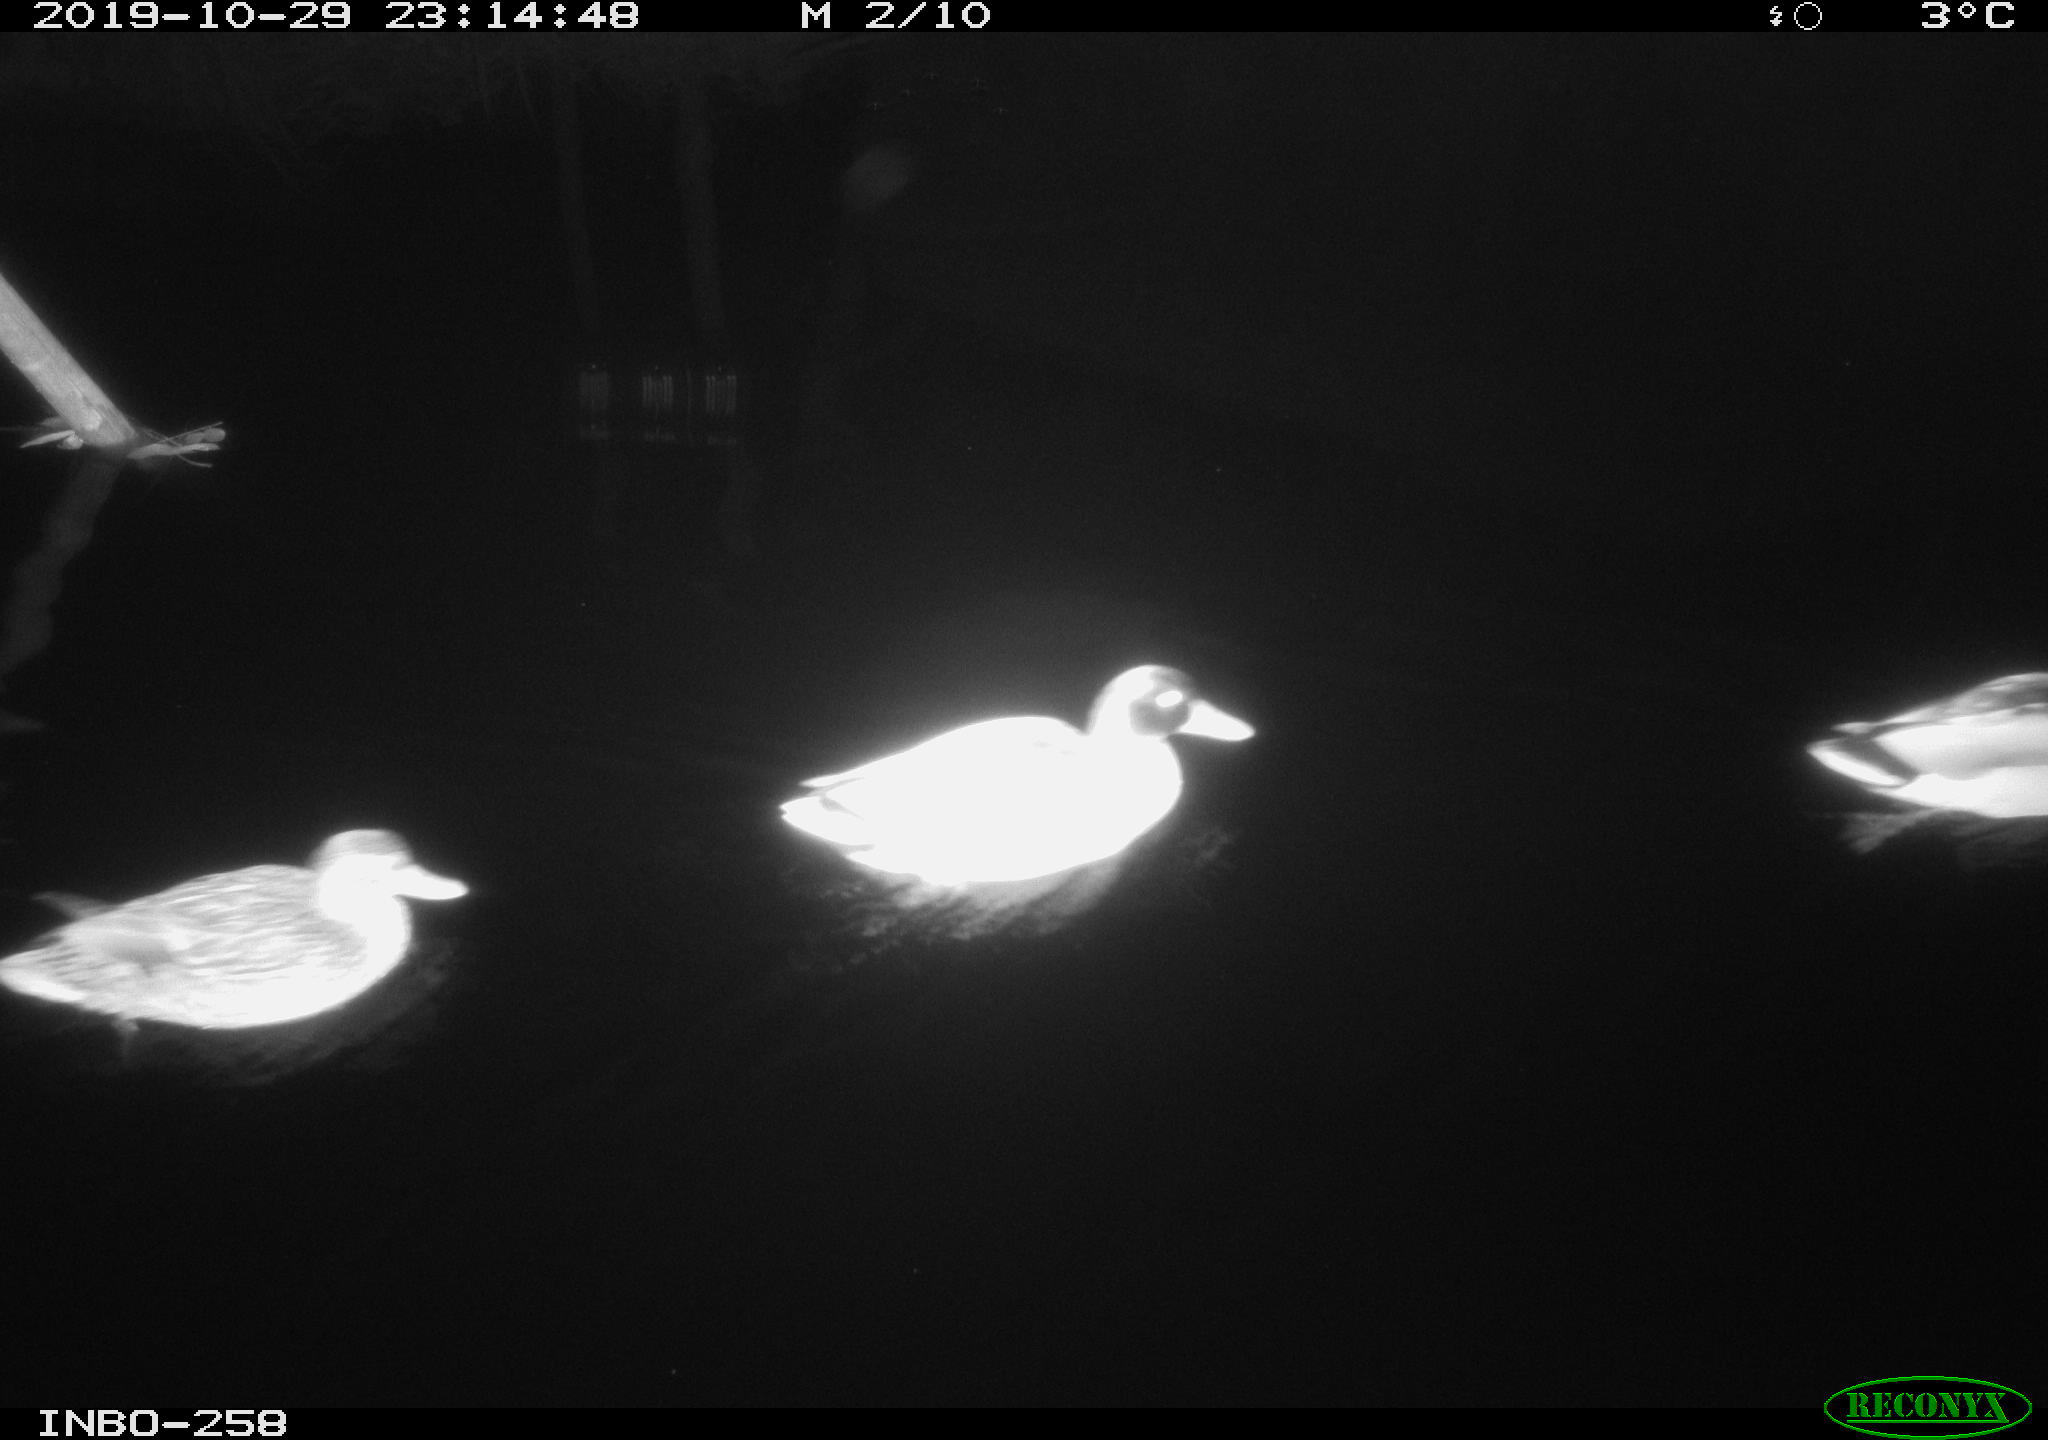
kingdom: Animalia
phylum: Chordata
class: Aves
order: Anseriformes
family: Anatidae
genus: Anas
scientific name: Anas platyrhynchos
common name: Mallard
